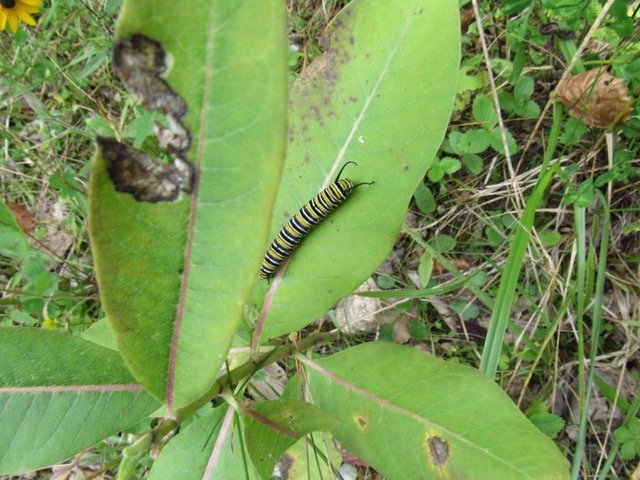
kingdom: Animalia
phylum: Arthropoda
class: Insecta
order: Lepidoptera
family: Nymphalidae
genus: Danaus
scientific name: Danaus plexippus
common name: Monarch
